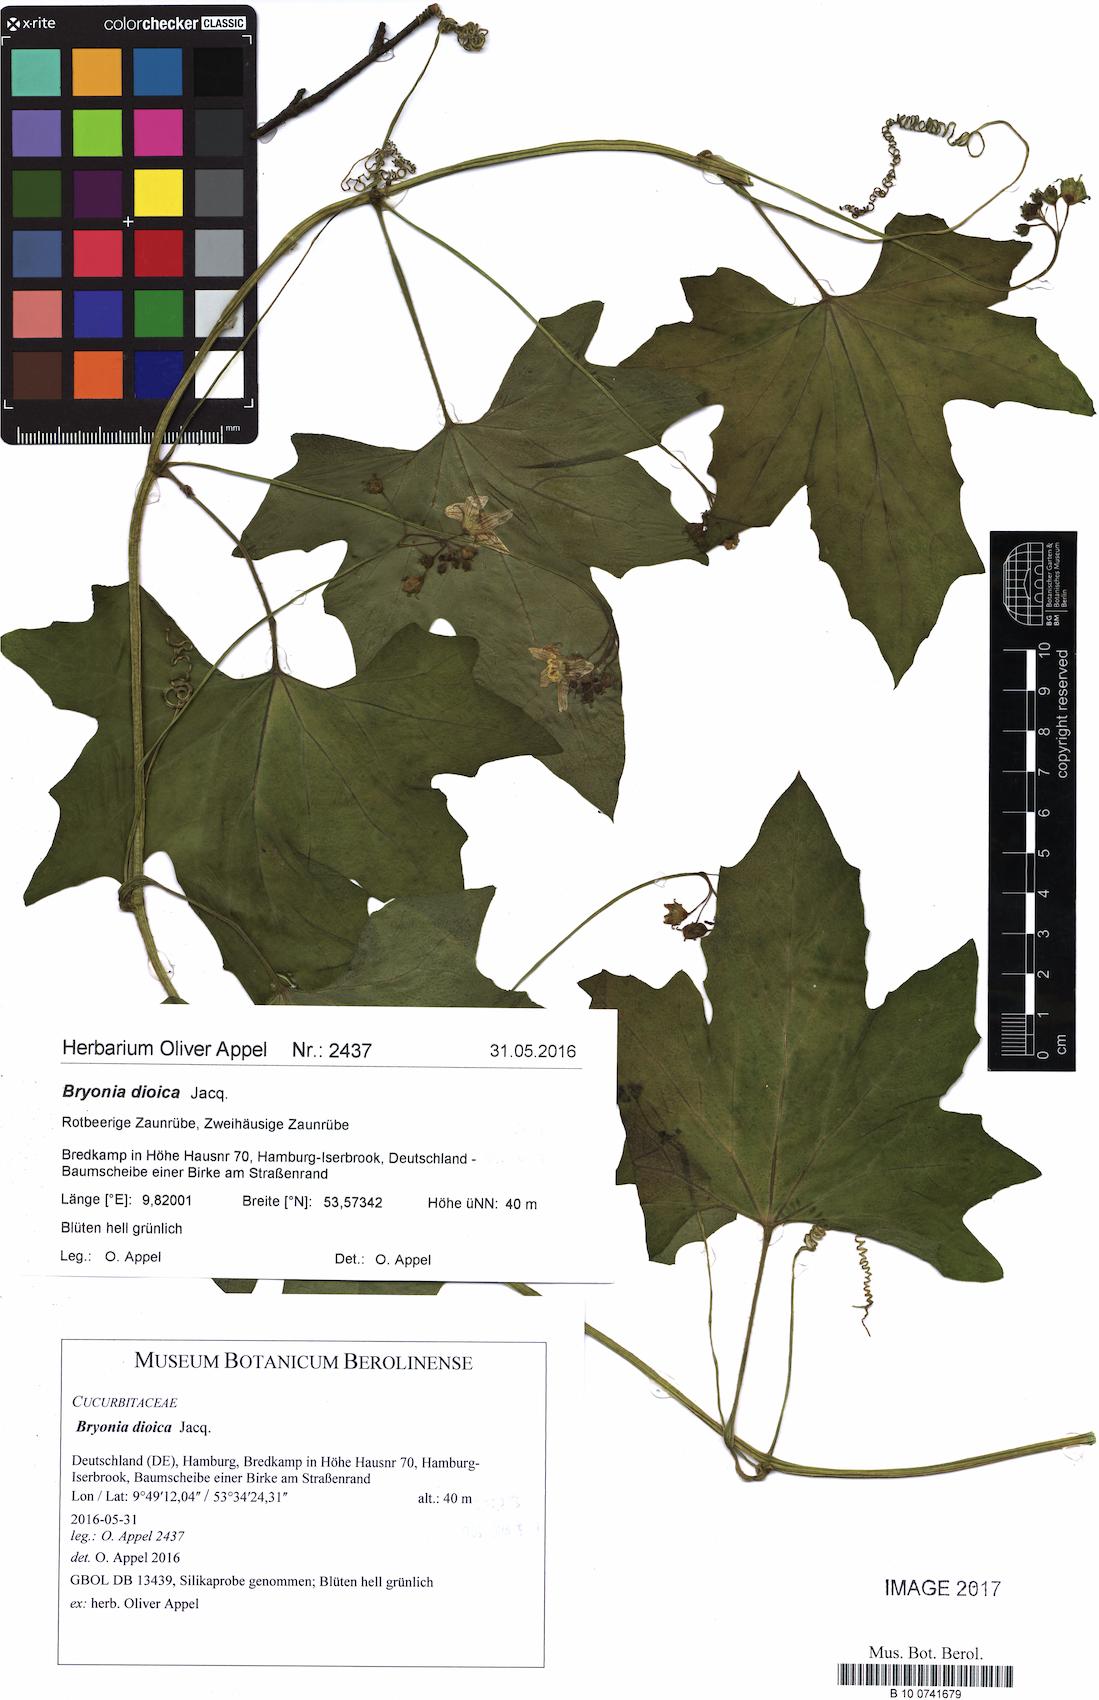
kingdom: Plantae
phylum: Tracheophyta
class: Magnoliopsida
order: Cucurbitales
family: Cucurbitaceae
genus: Bryonia
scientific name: Bryonia dioica
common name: White bryony
